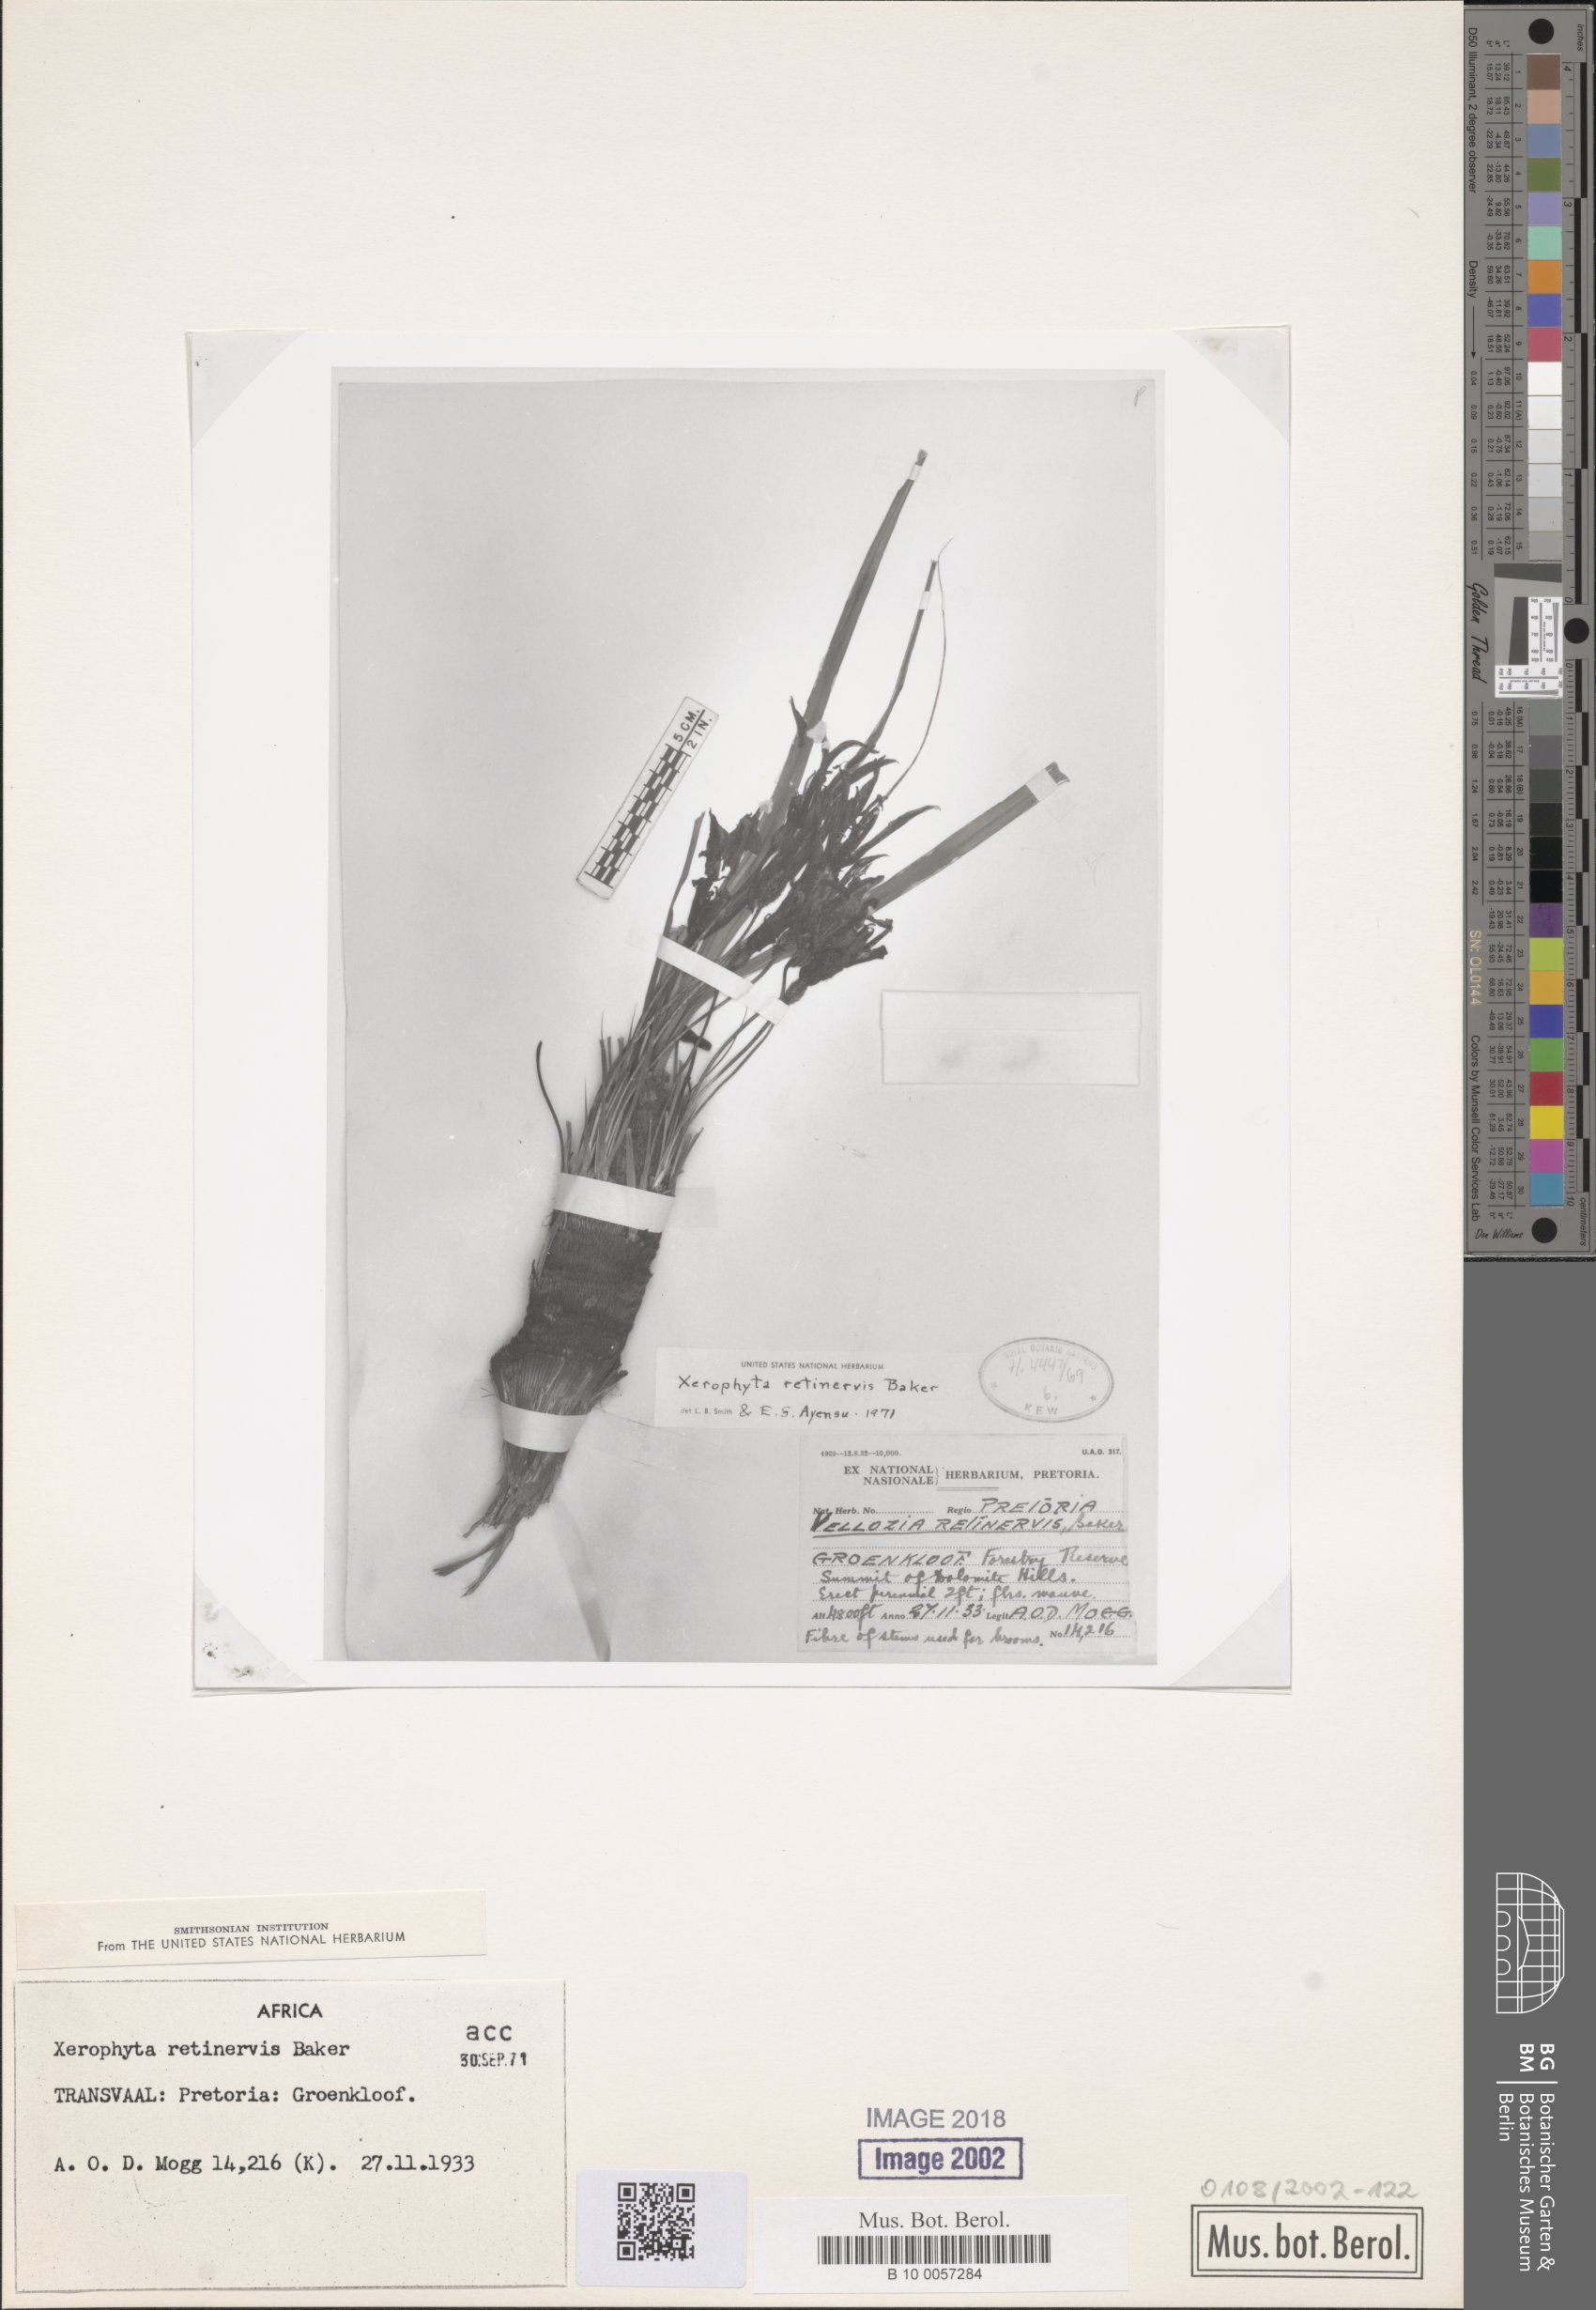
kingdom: Plantae
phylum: Tracheophyta
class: Liliopsida
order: Pandanales
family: Velloziaceae
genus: Xerophyta
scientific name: Xerophyta retinervis
